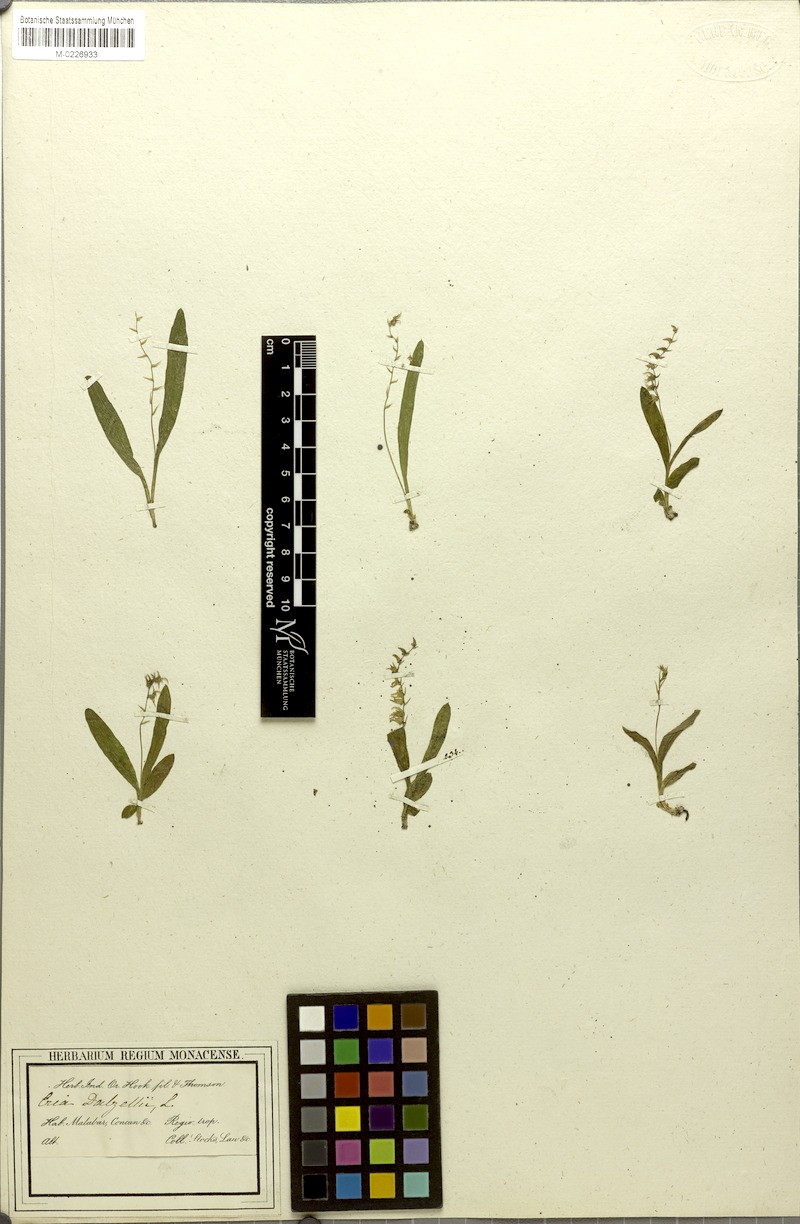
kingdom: Plantae
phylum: Tracheophyta
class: Liliopsida
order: Asparagales
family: Orchidaceae
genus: Porpax
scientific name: Porpax filiformis
